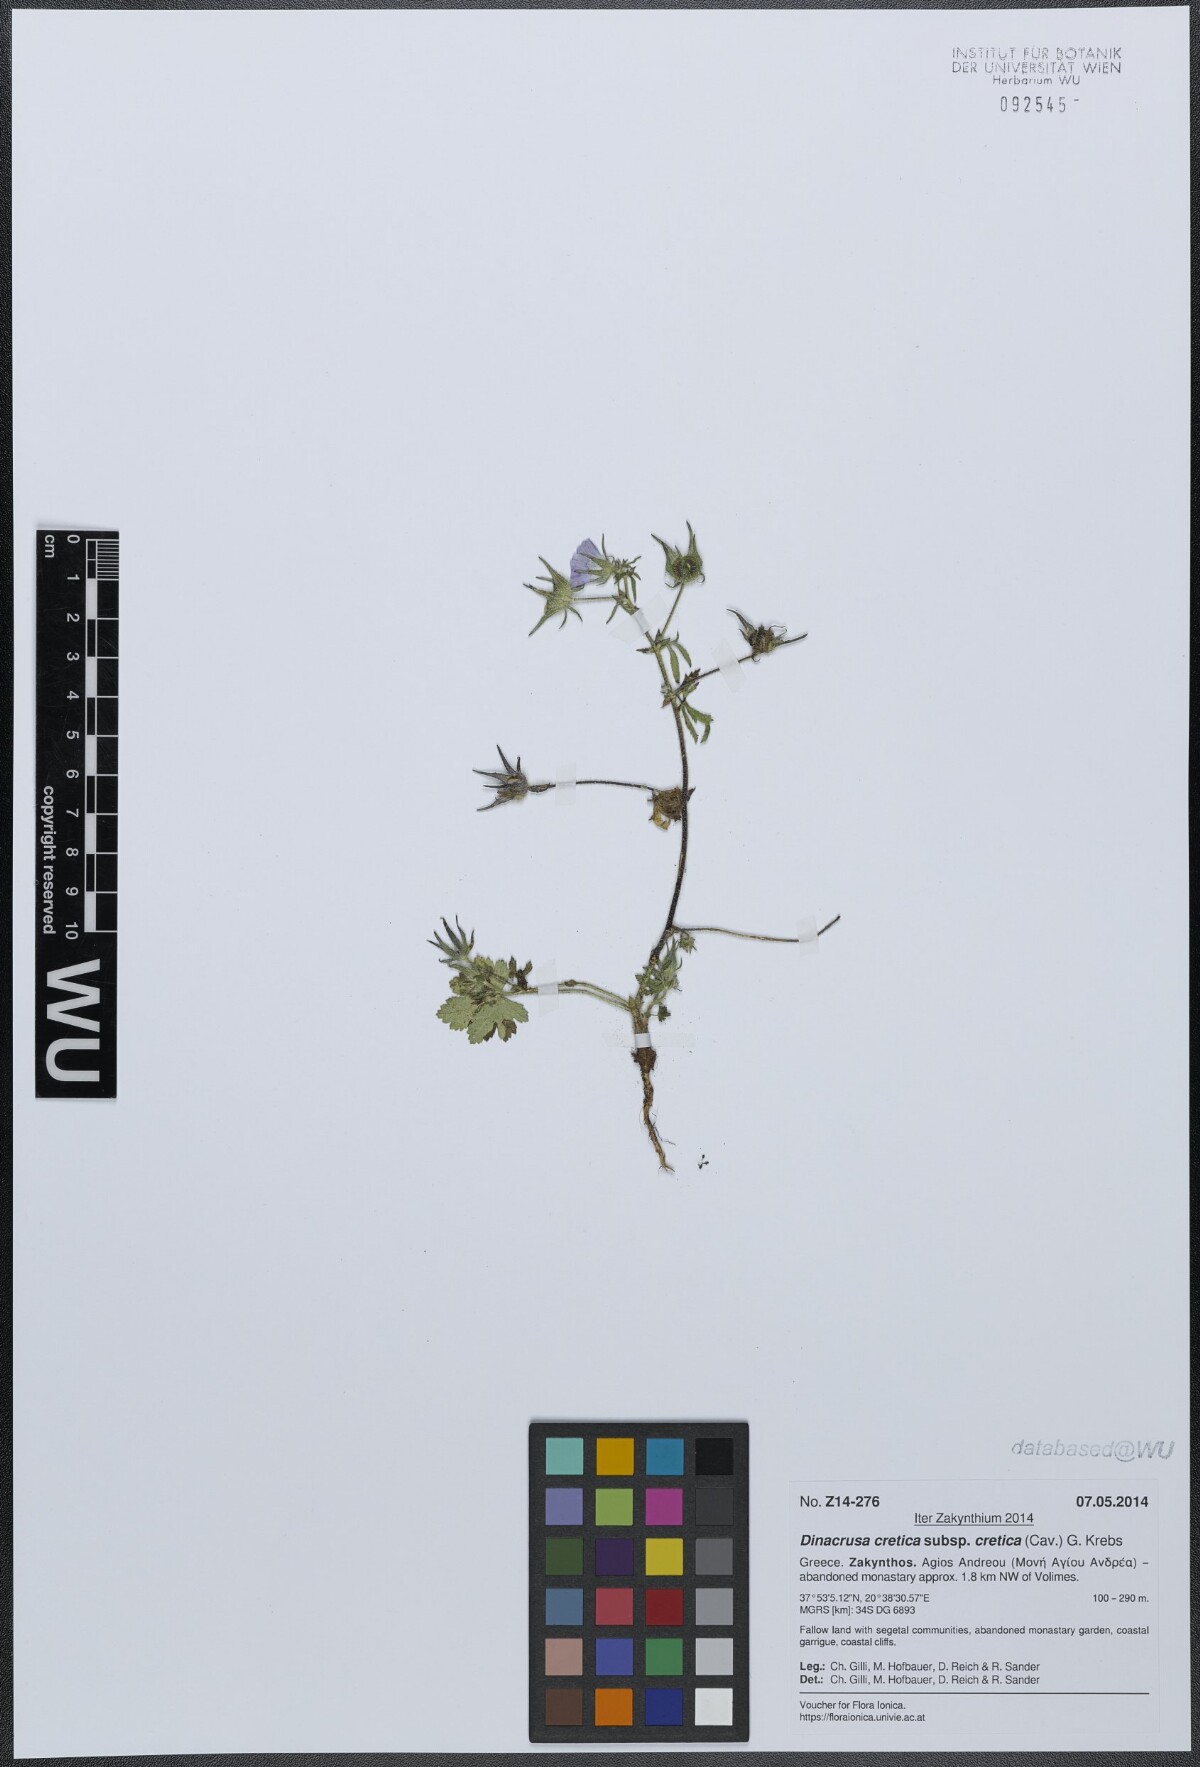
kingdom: Plantae
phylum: Tracheophyta
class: Magnoliopsida
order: Malvales
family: Malvaceae
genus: Malva
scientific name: Malva cretica
